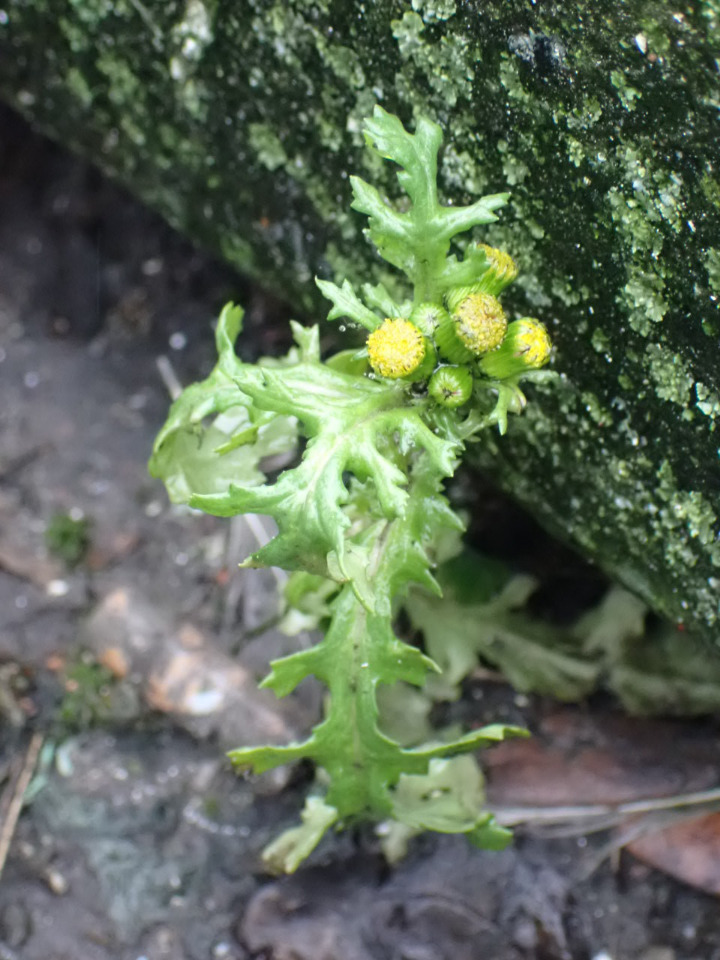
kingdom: Plantae
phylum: Tracheophyta
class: Magnoliopsida
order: Asterales
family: Asteraceae
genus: Senecio
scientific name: Senecio vulgaris
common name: Almindelig brandbæger
